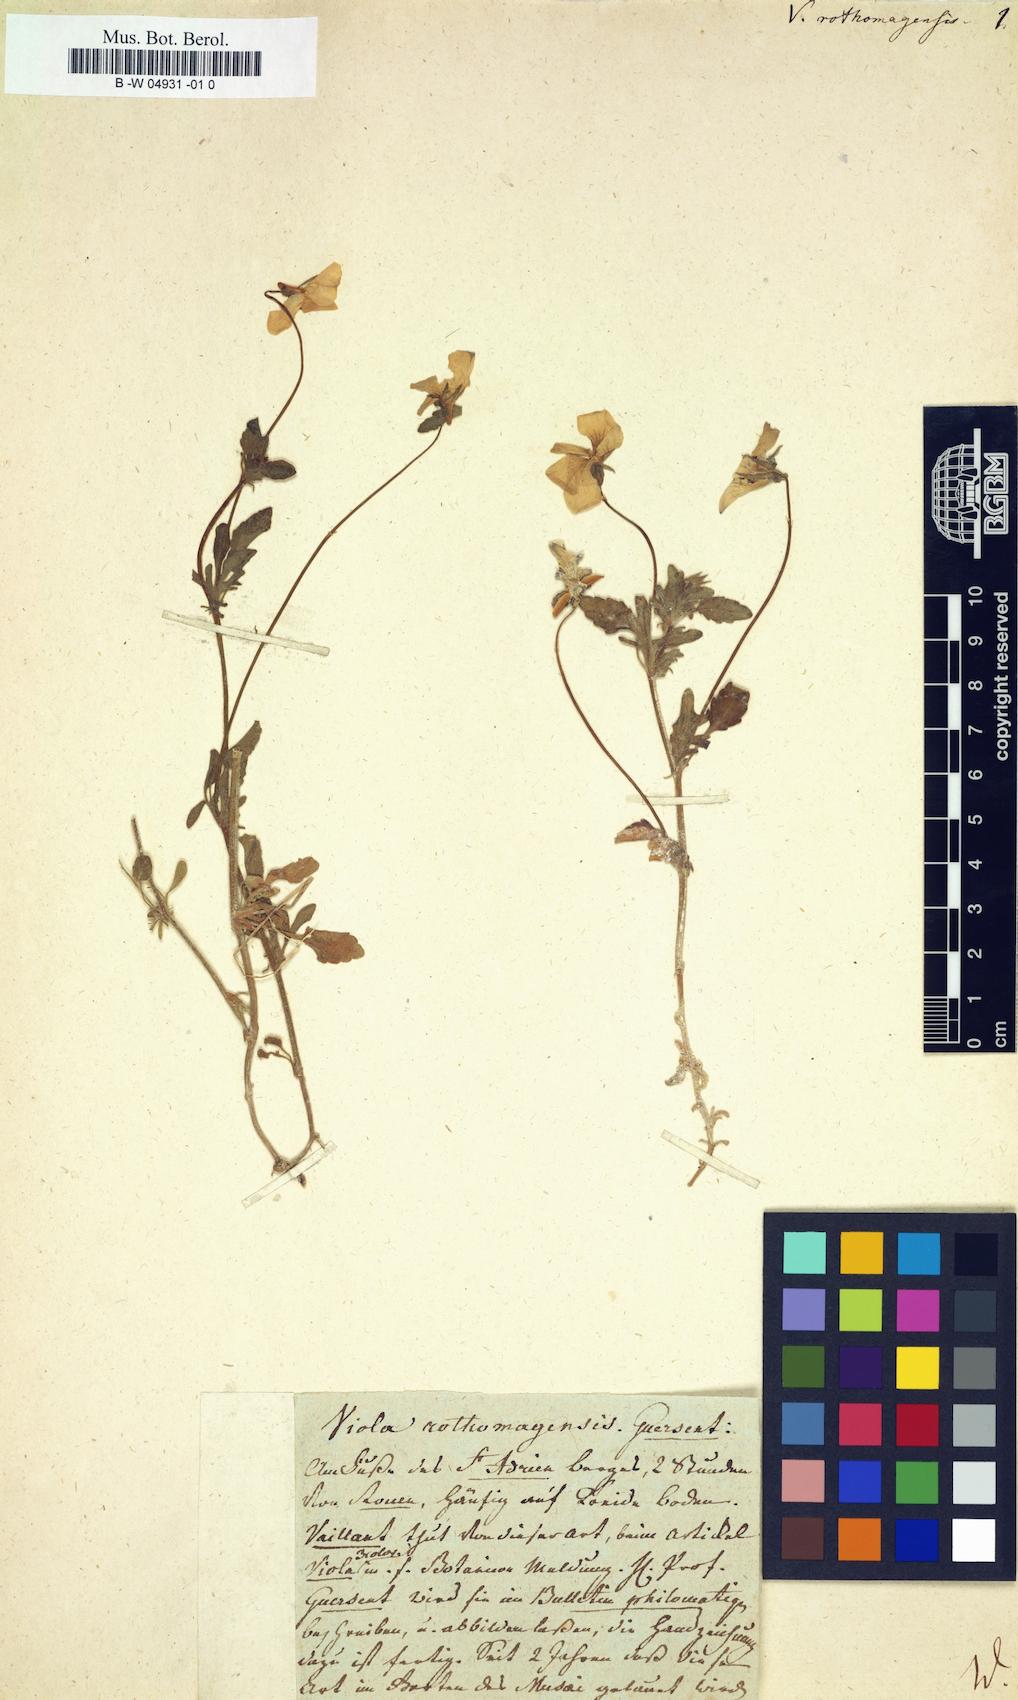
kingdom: Plantae
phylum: Tracheophyta
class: Magnoliopsida
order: Malpighiales
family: Violaceae
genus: Viola
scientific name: Viola hispida
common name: Rouen pansy
